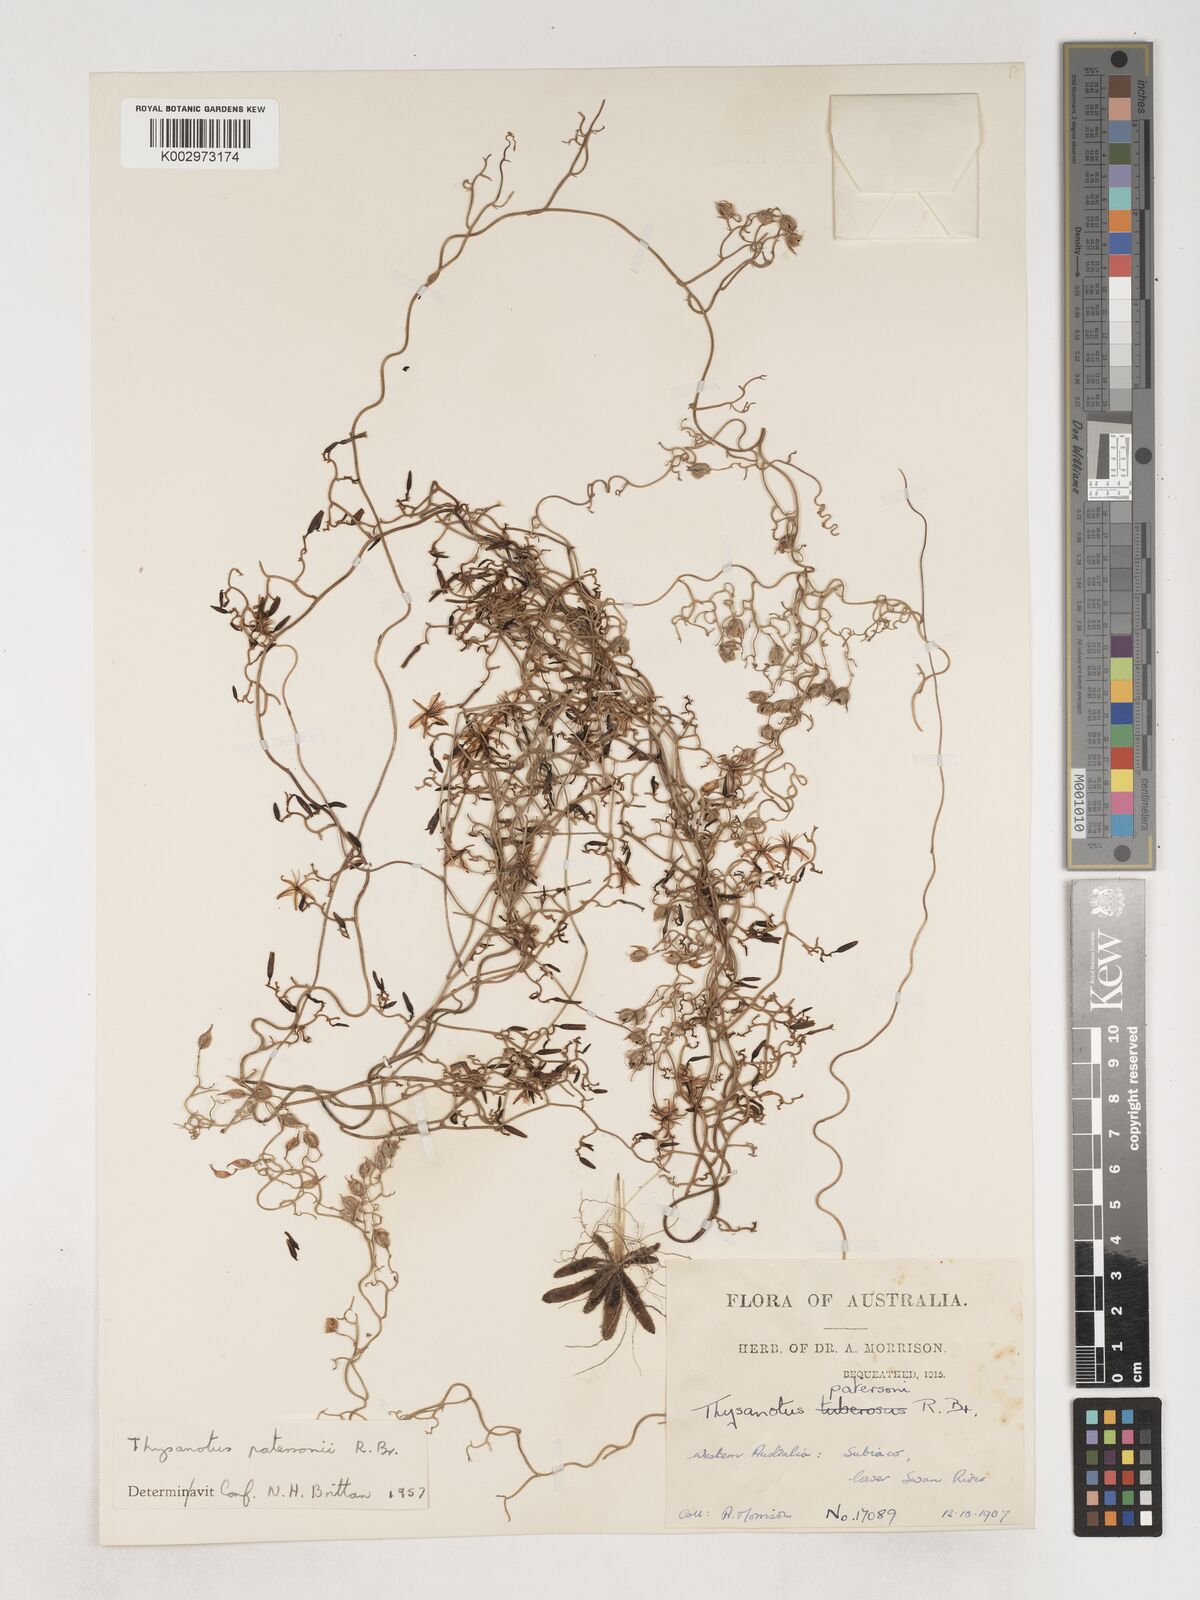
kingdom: Plantae
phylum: Tracheophyta
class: Liliopsida
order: Asparagales
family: Asparagaceae
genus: Thysanotus
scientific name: Thysanotus patersonii
